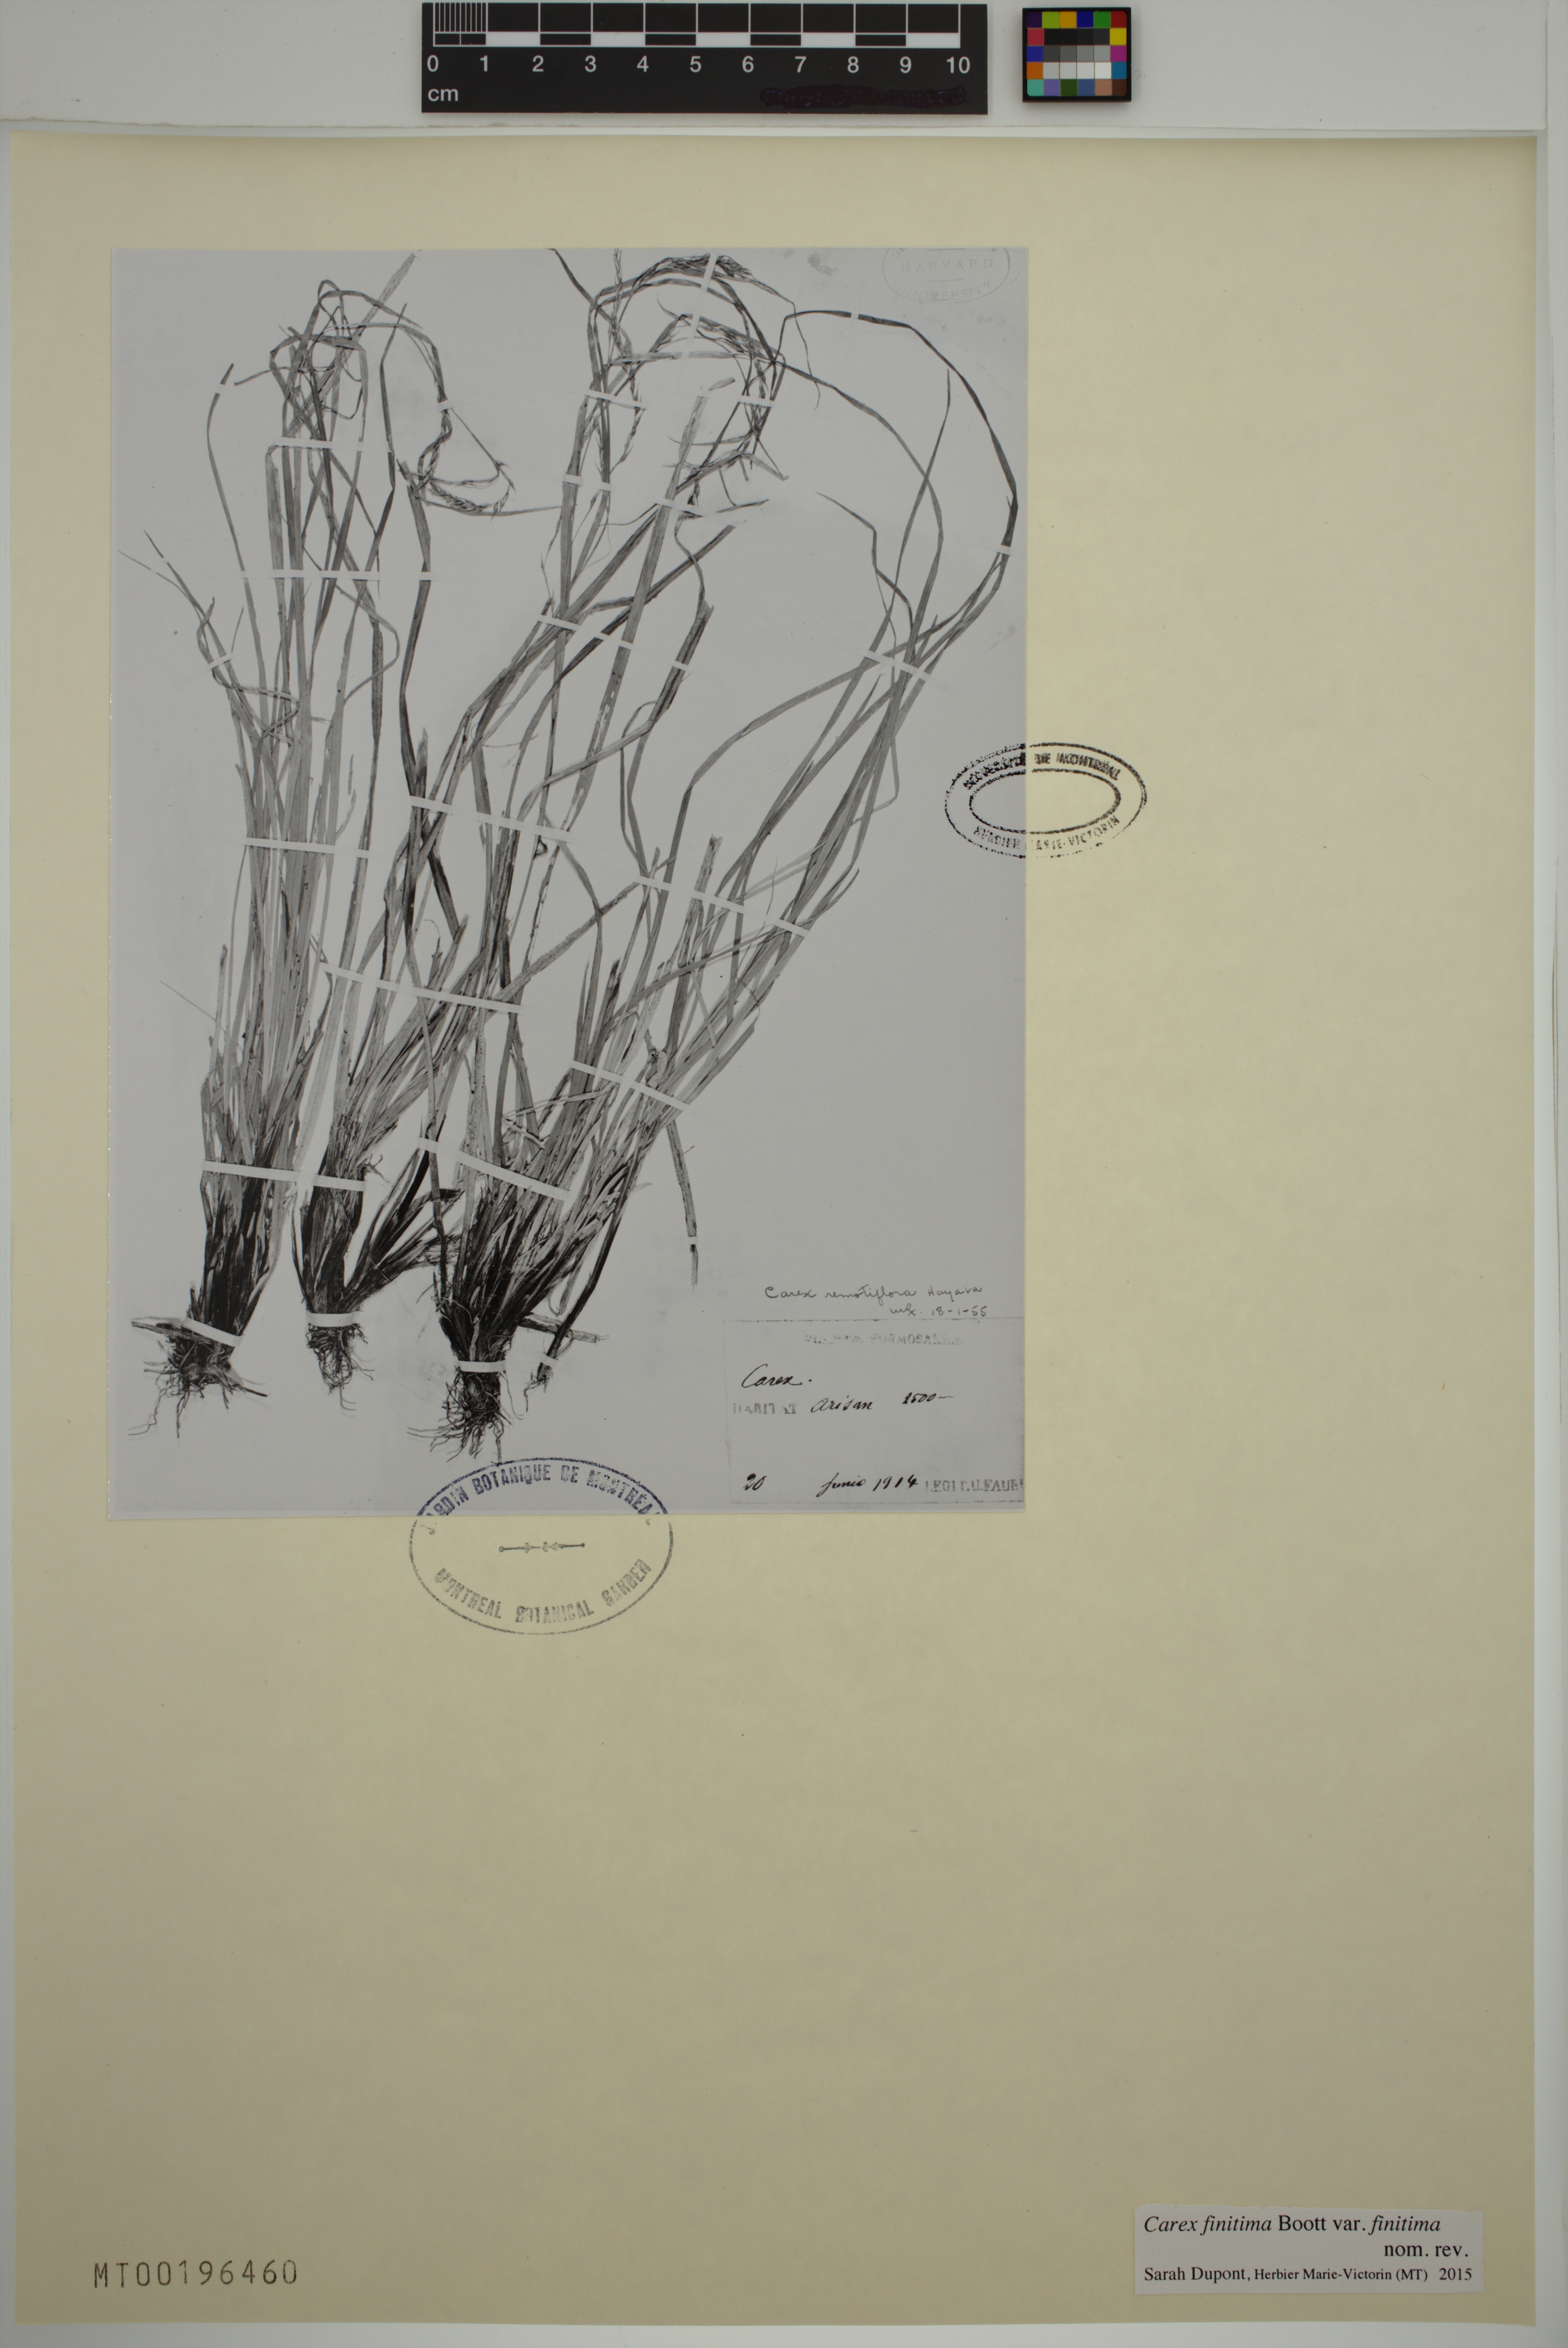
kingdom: Plantae
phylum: Tracheophyta
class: Liliopsida
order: Poales
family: Cyperaceae
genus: Carex
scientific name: Carex finitima
